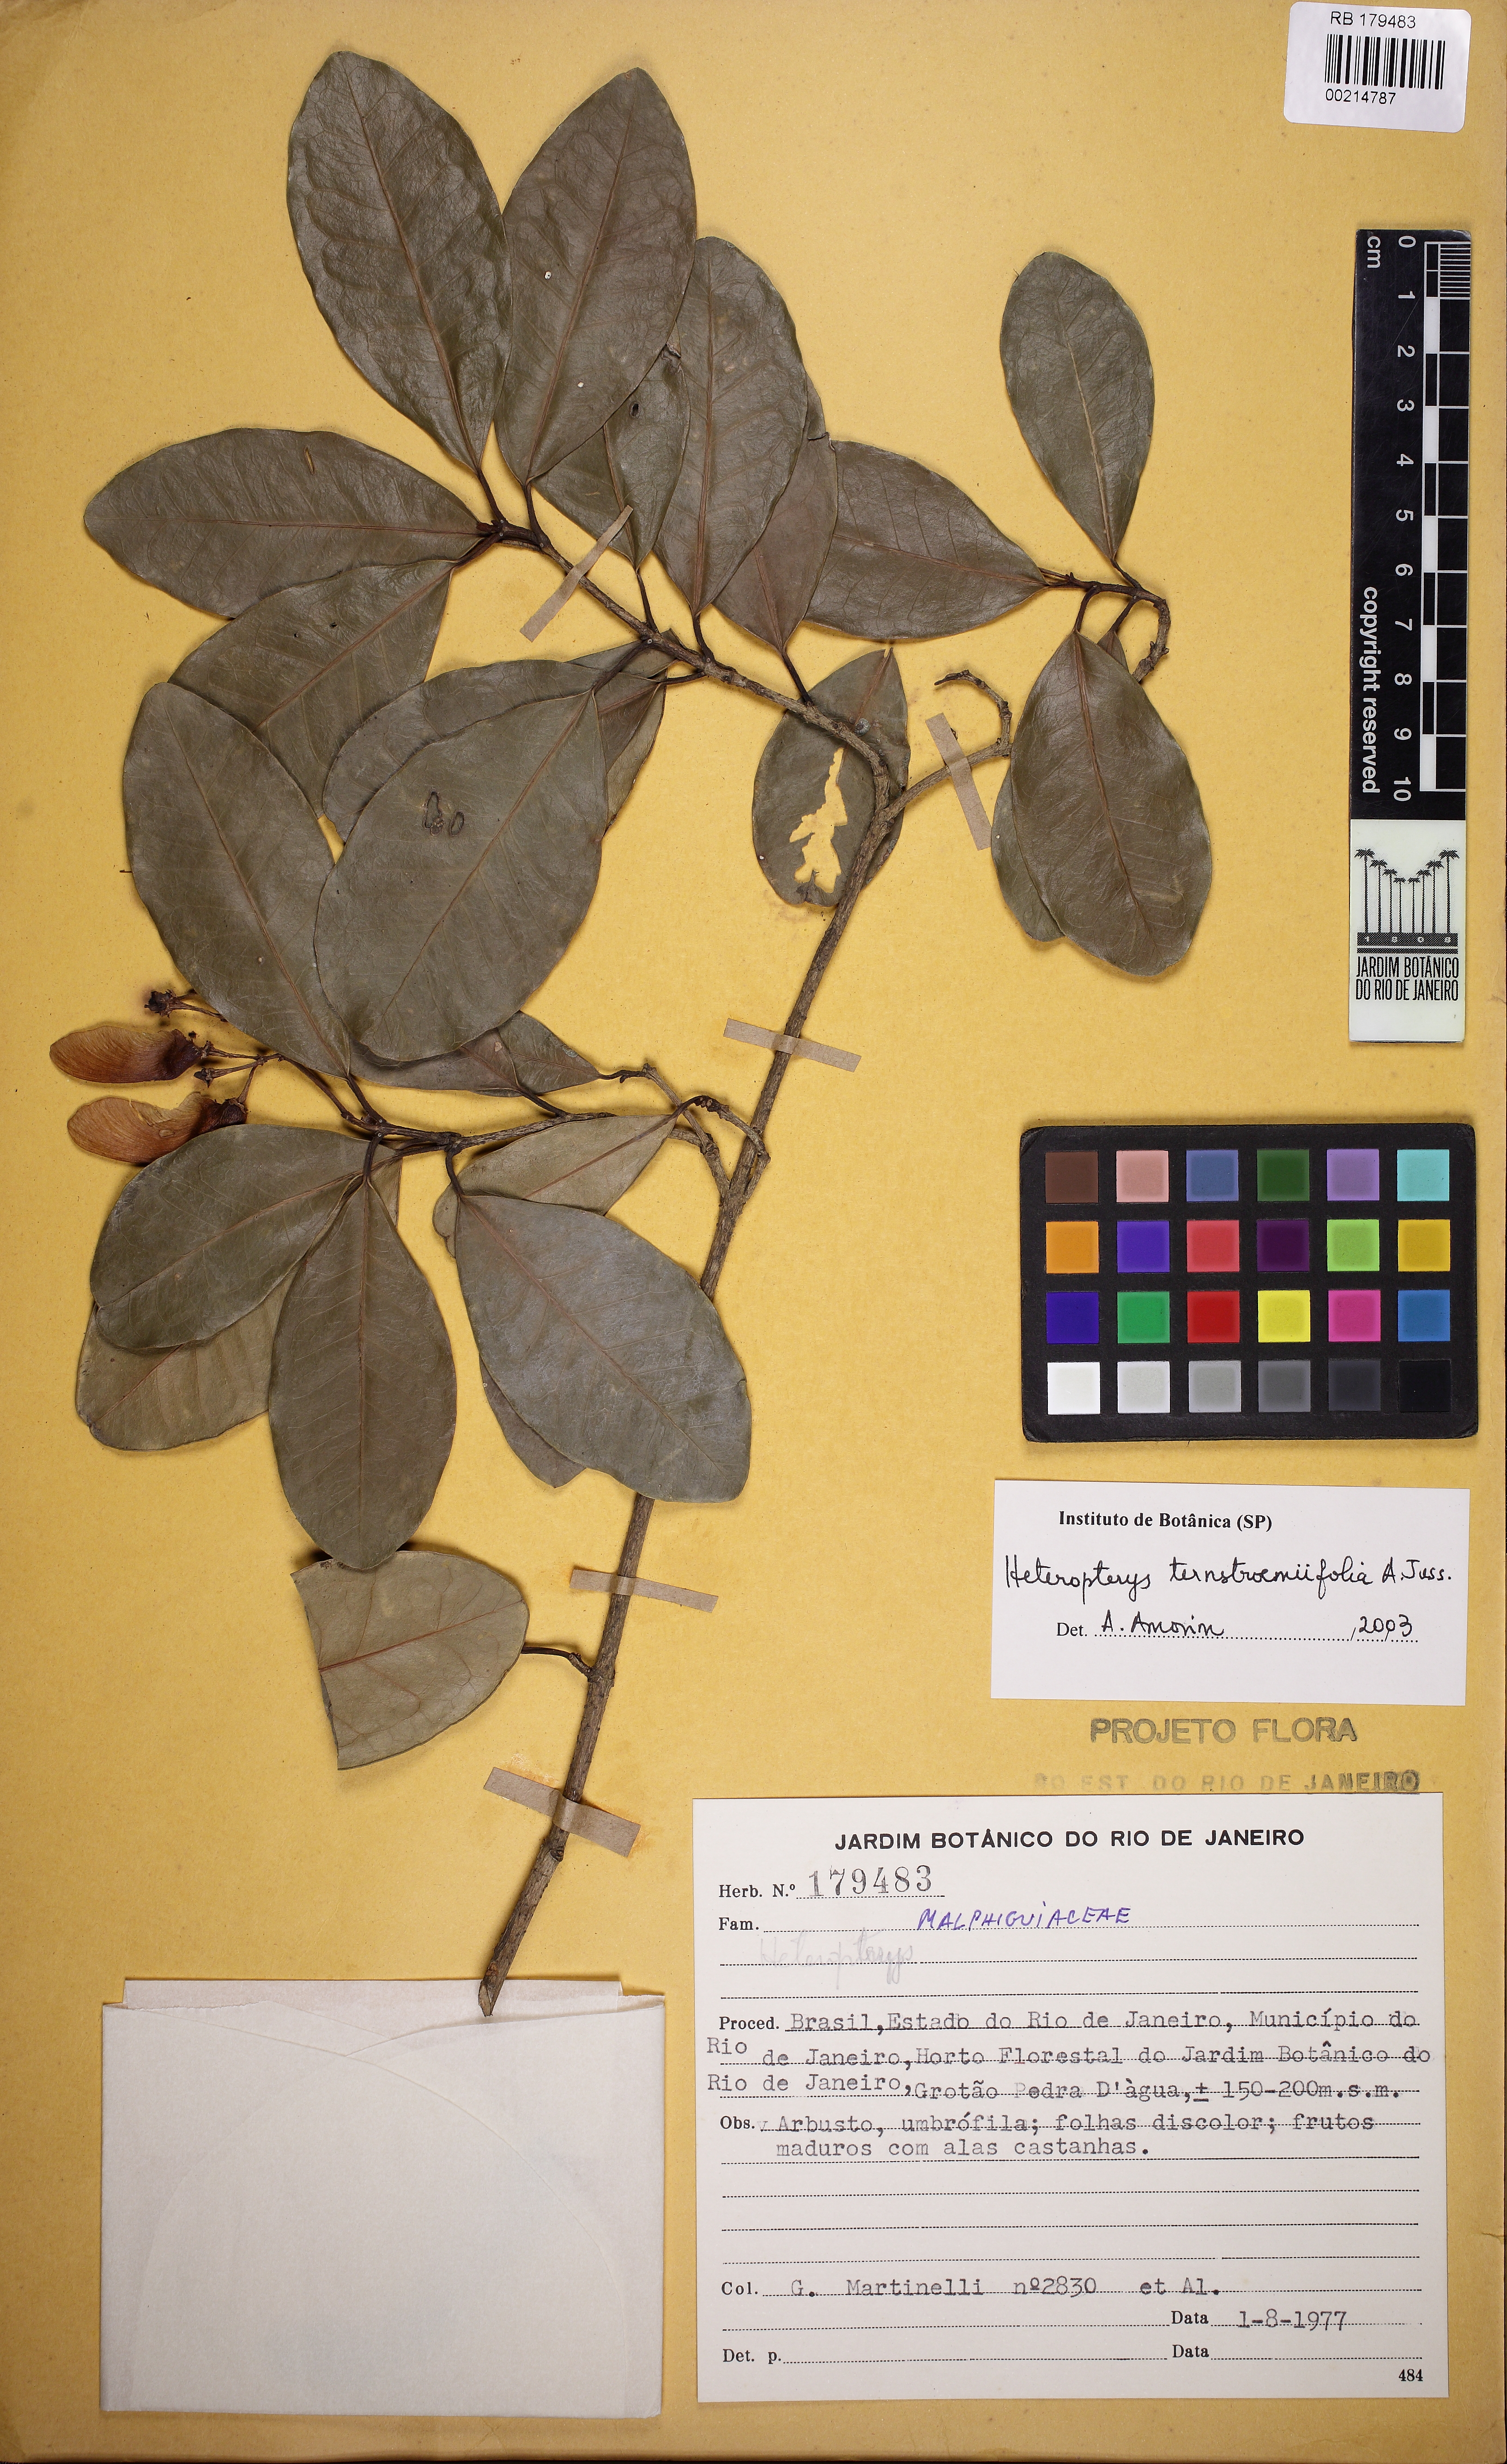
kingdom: Plantae
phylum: Tracheophyta
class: Magnoliopsida
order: Malpighiales
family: Malpighiaceae
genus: Heteropterys
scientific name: Heteropterys ternstroemiifolia
